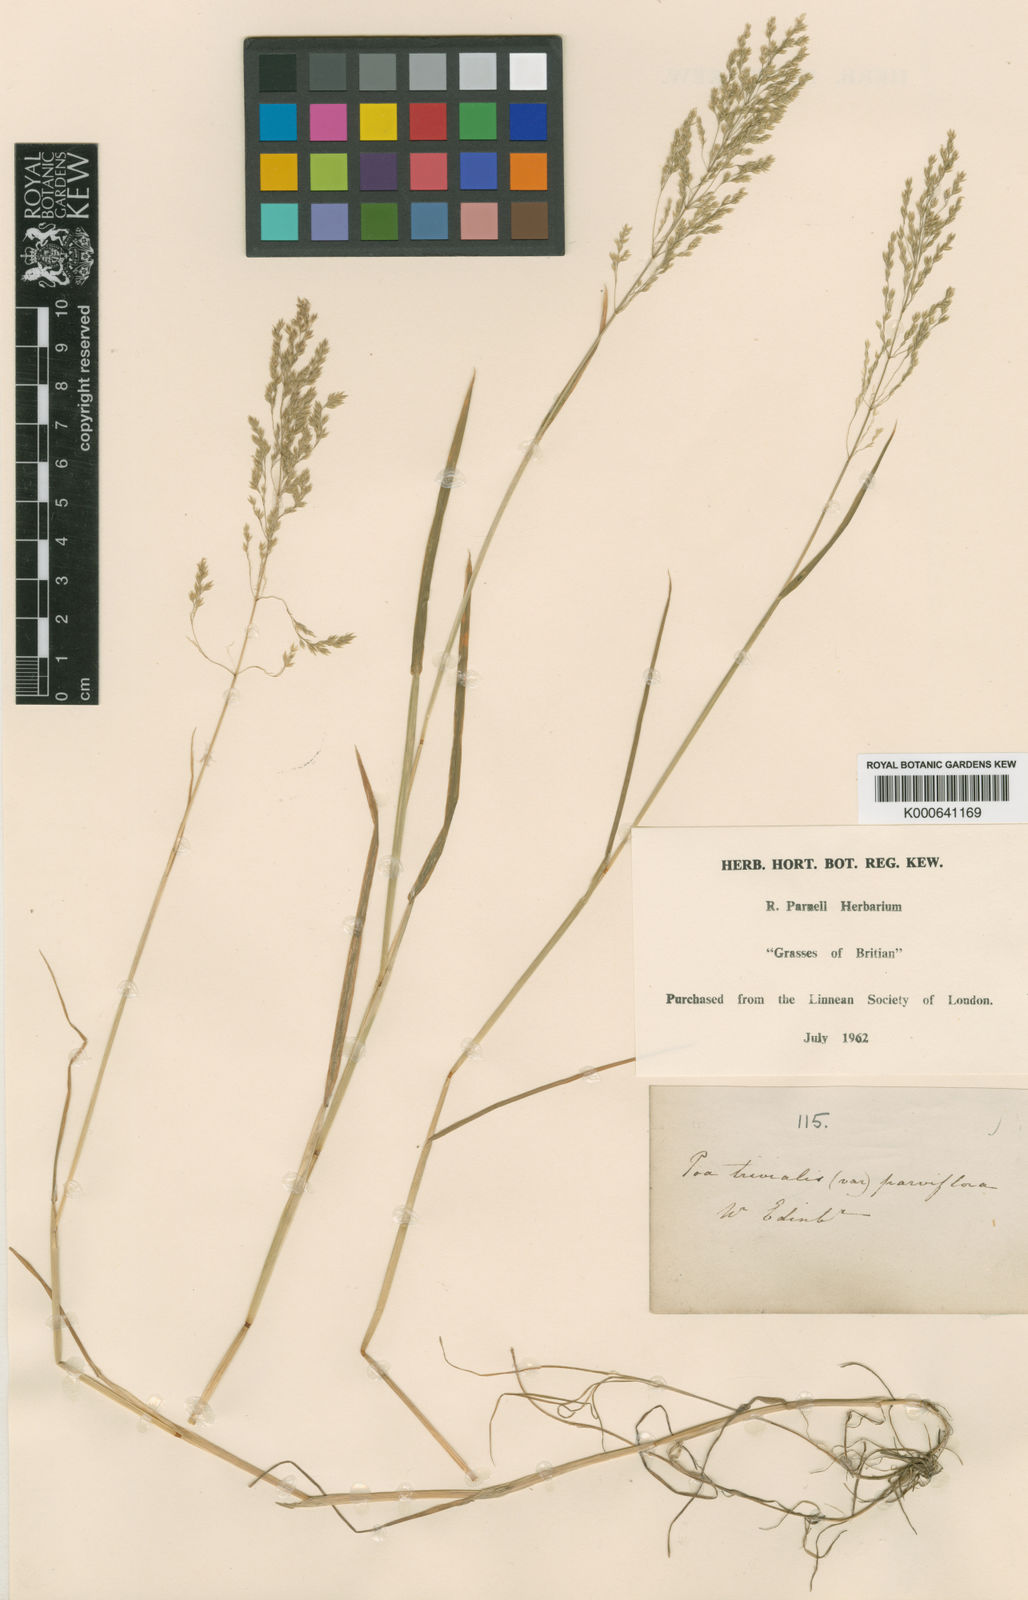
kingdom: Plantae
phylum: Tracheophyta
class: Liliopsida
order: Poales
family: Poaceae
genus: Poa
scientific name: Poa trivialis
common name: Rough bluegrass
